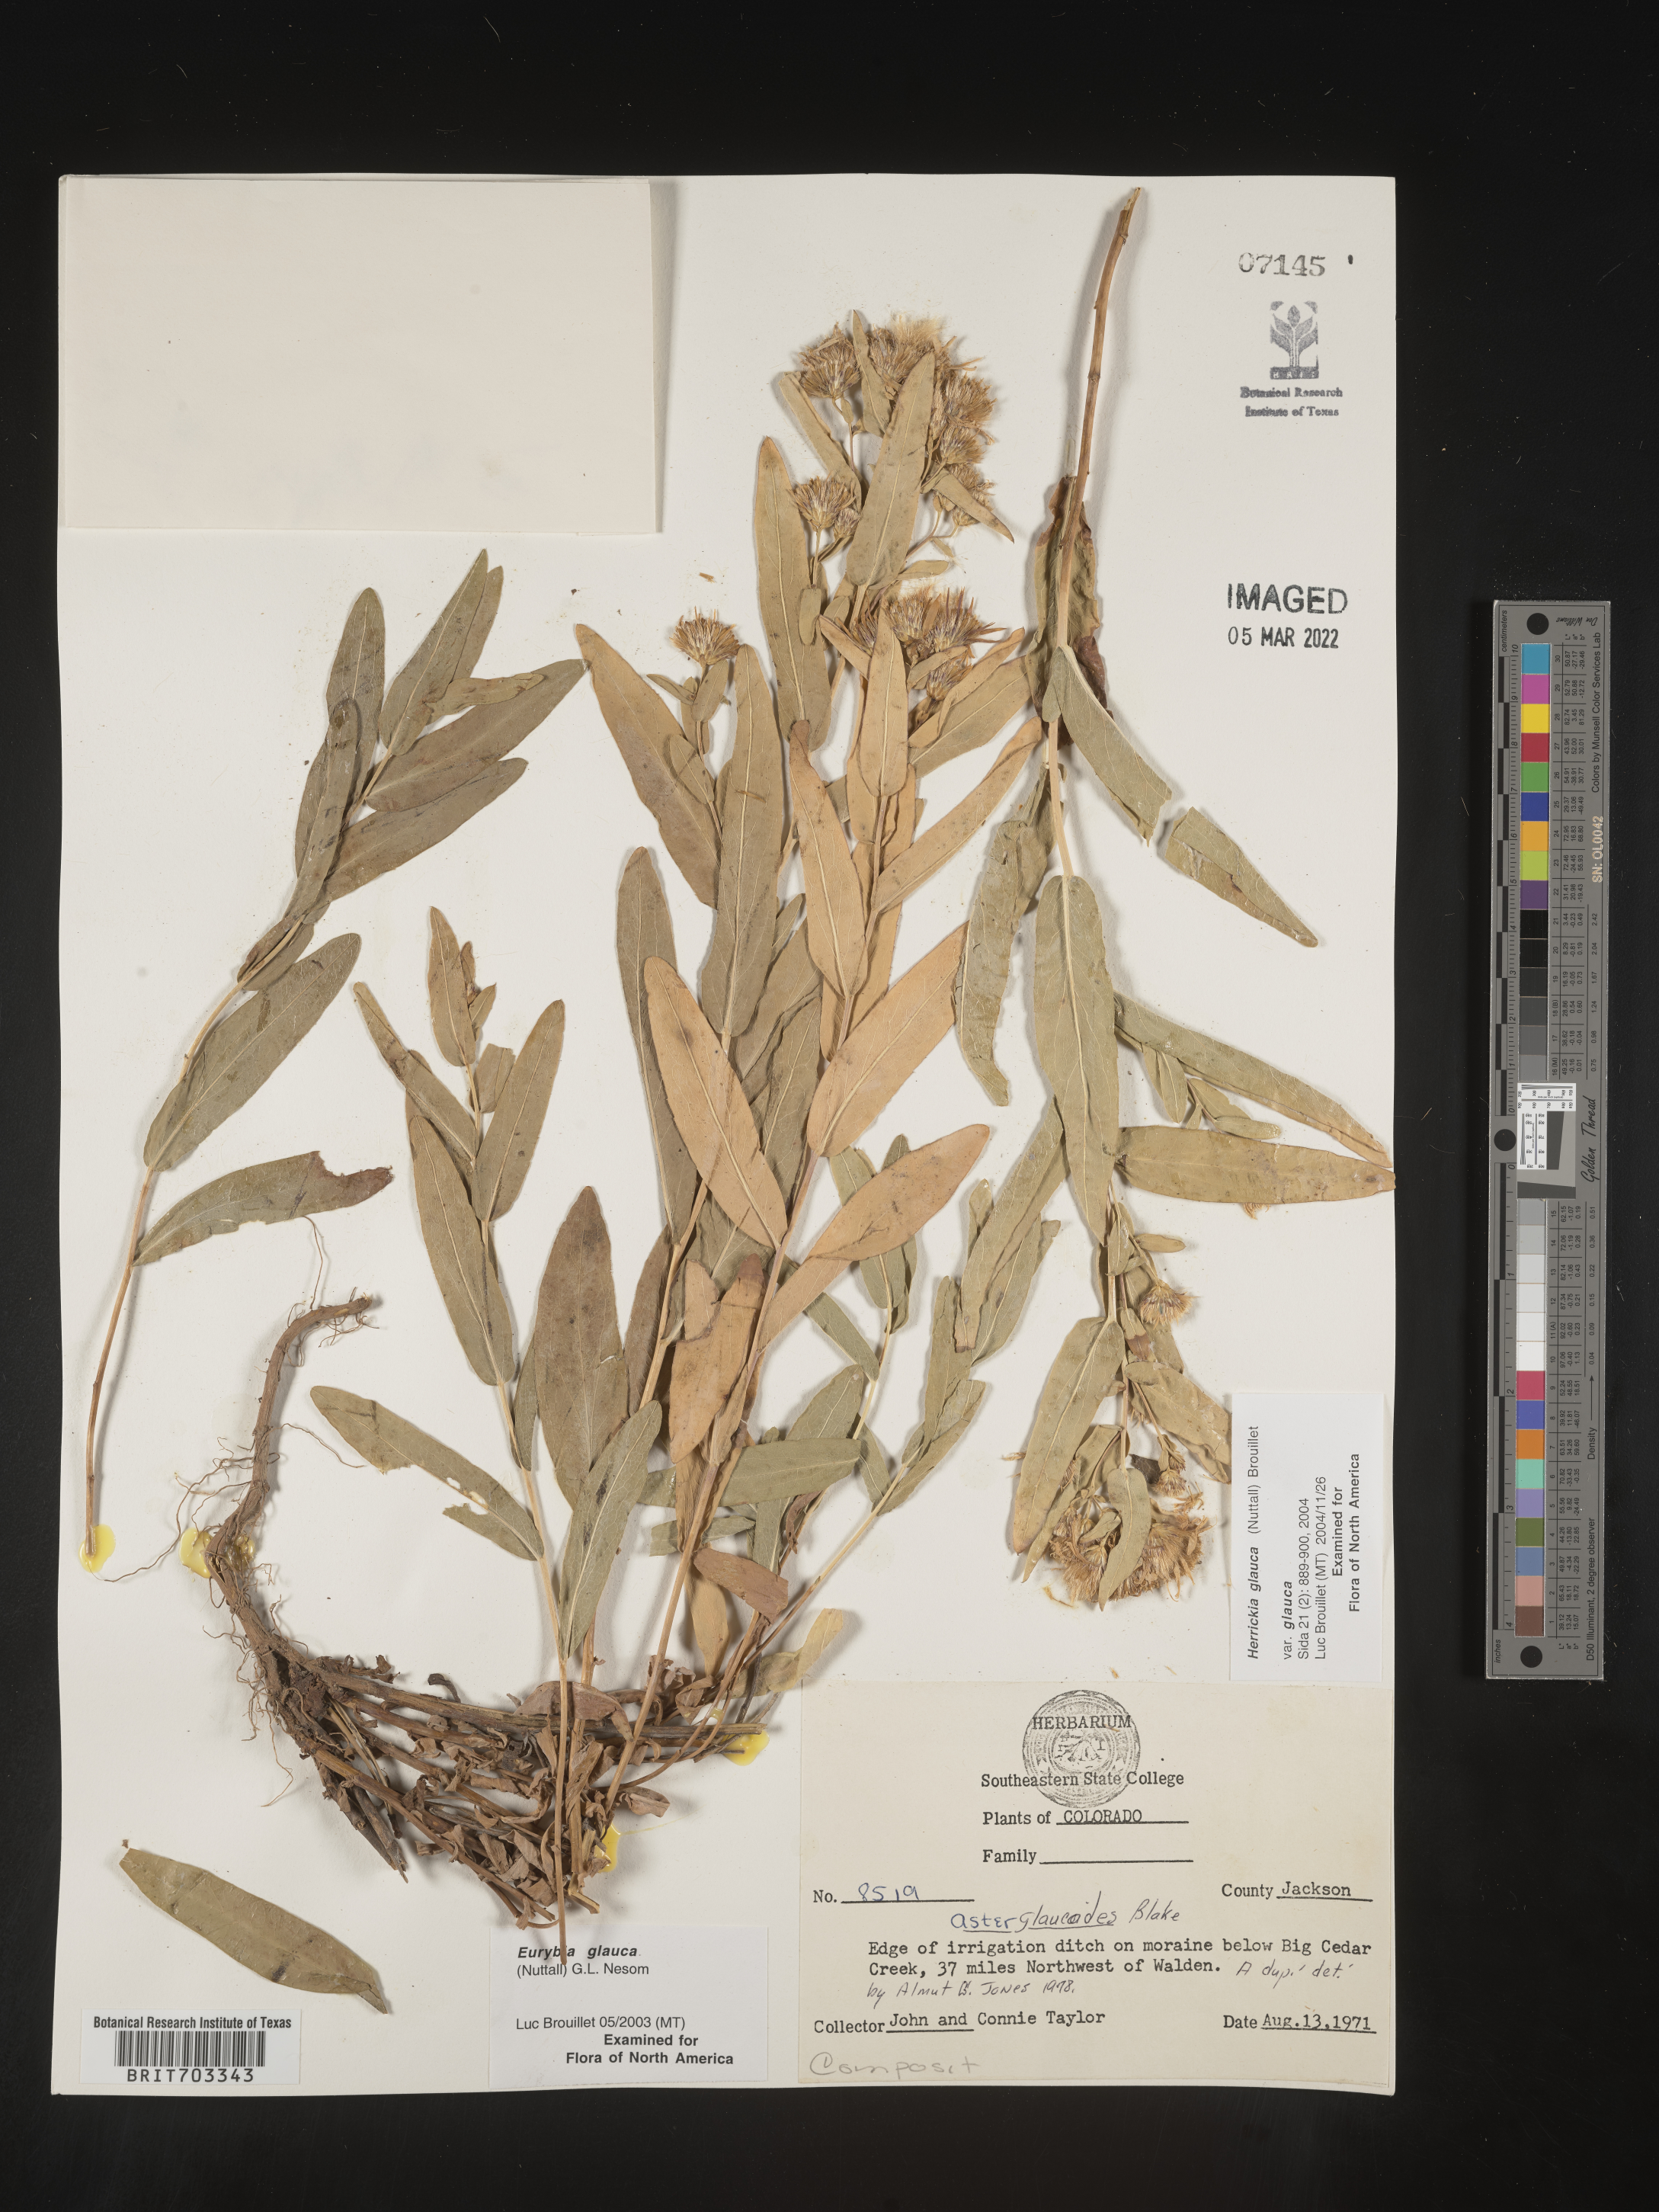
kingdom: Plantae
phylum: Tracheophyta
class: Magnoliopsida
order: Asterales
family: Asteraceae
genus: Eurybia
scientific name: Eurybia glauca
